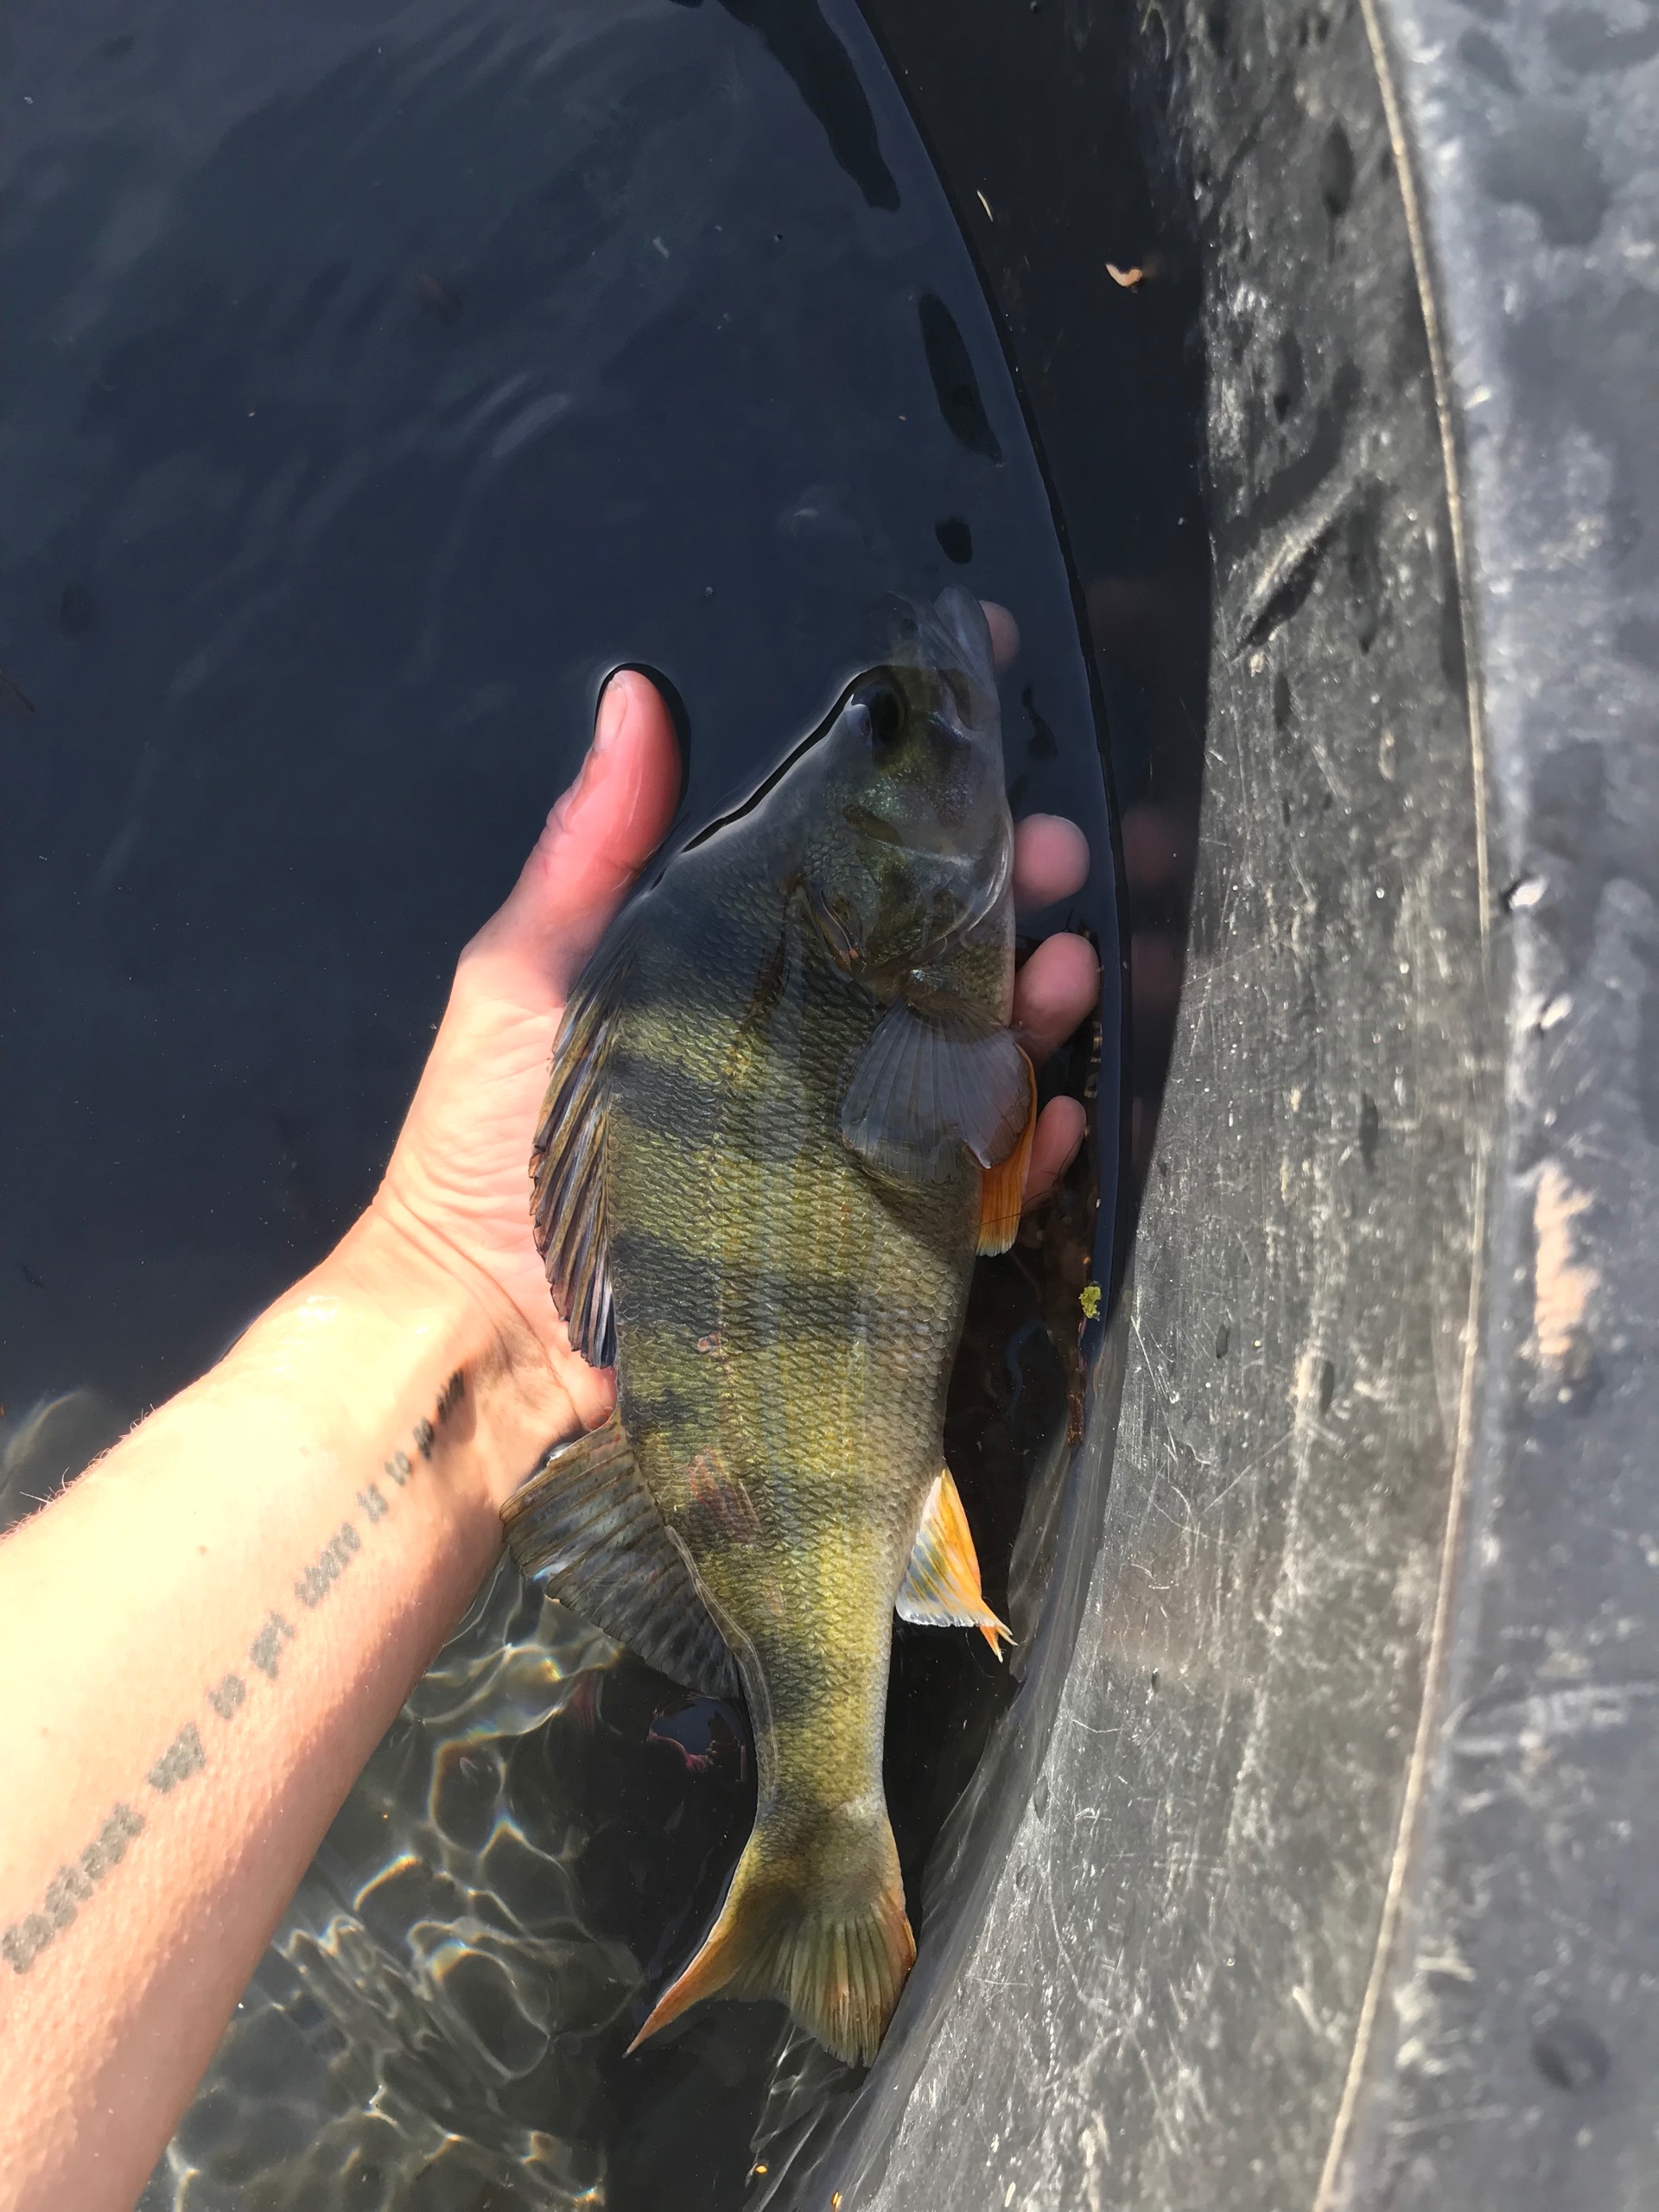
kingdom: Animalia
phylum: Chordata
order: Perciformes
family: Percidae
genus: Perca
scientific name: Perca fluviatilis
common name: Aborre
